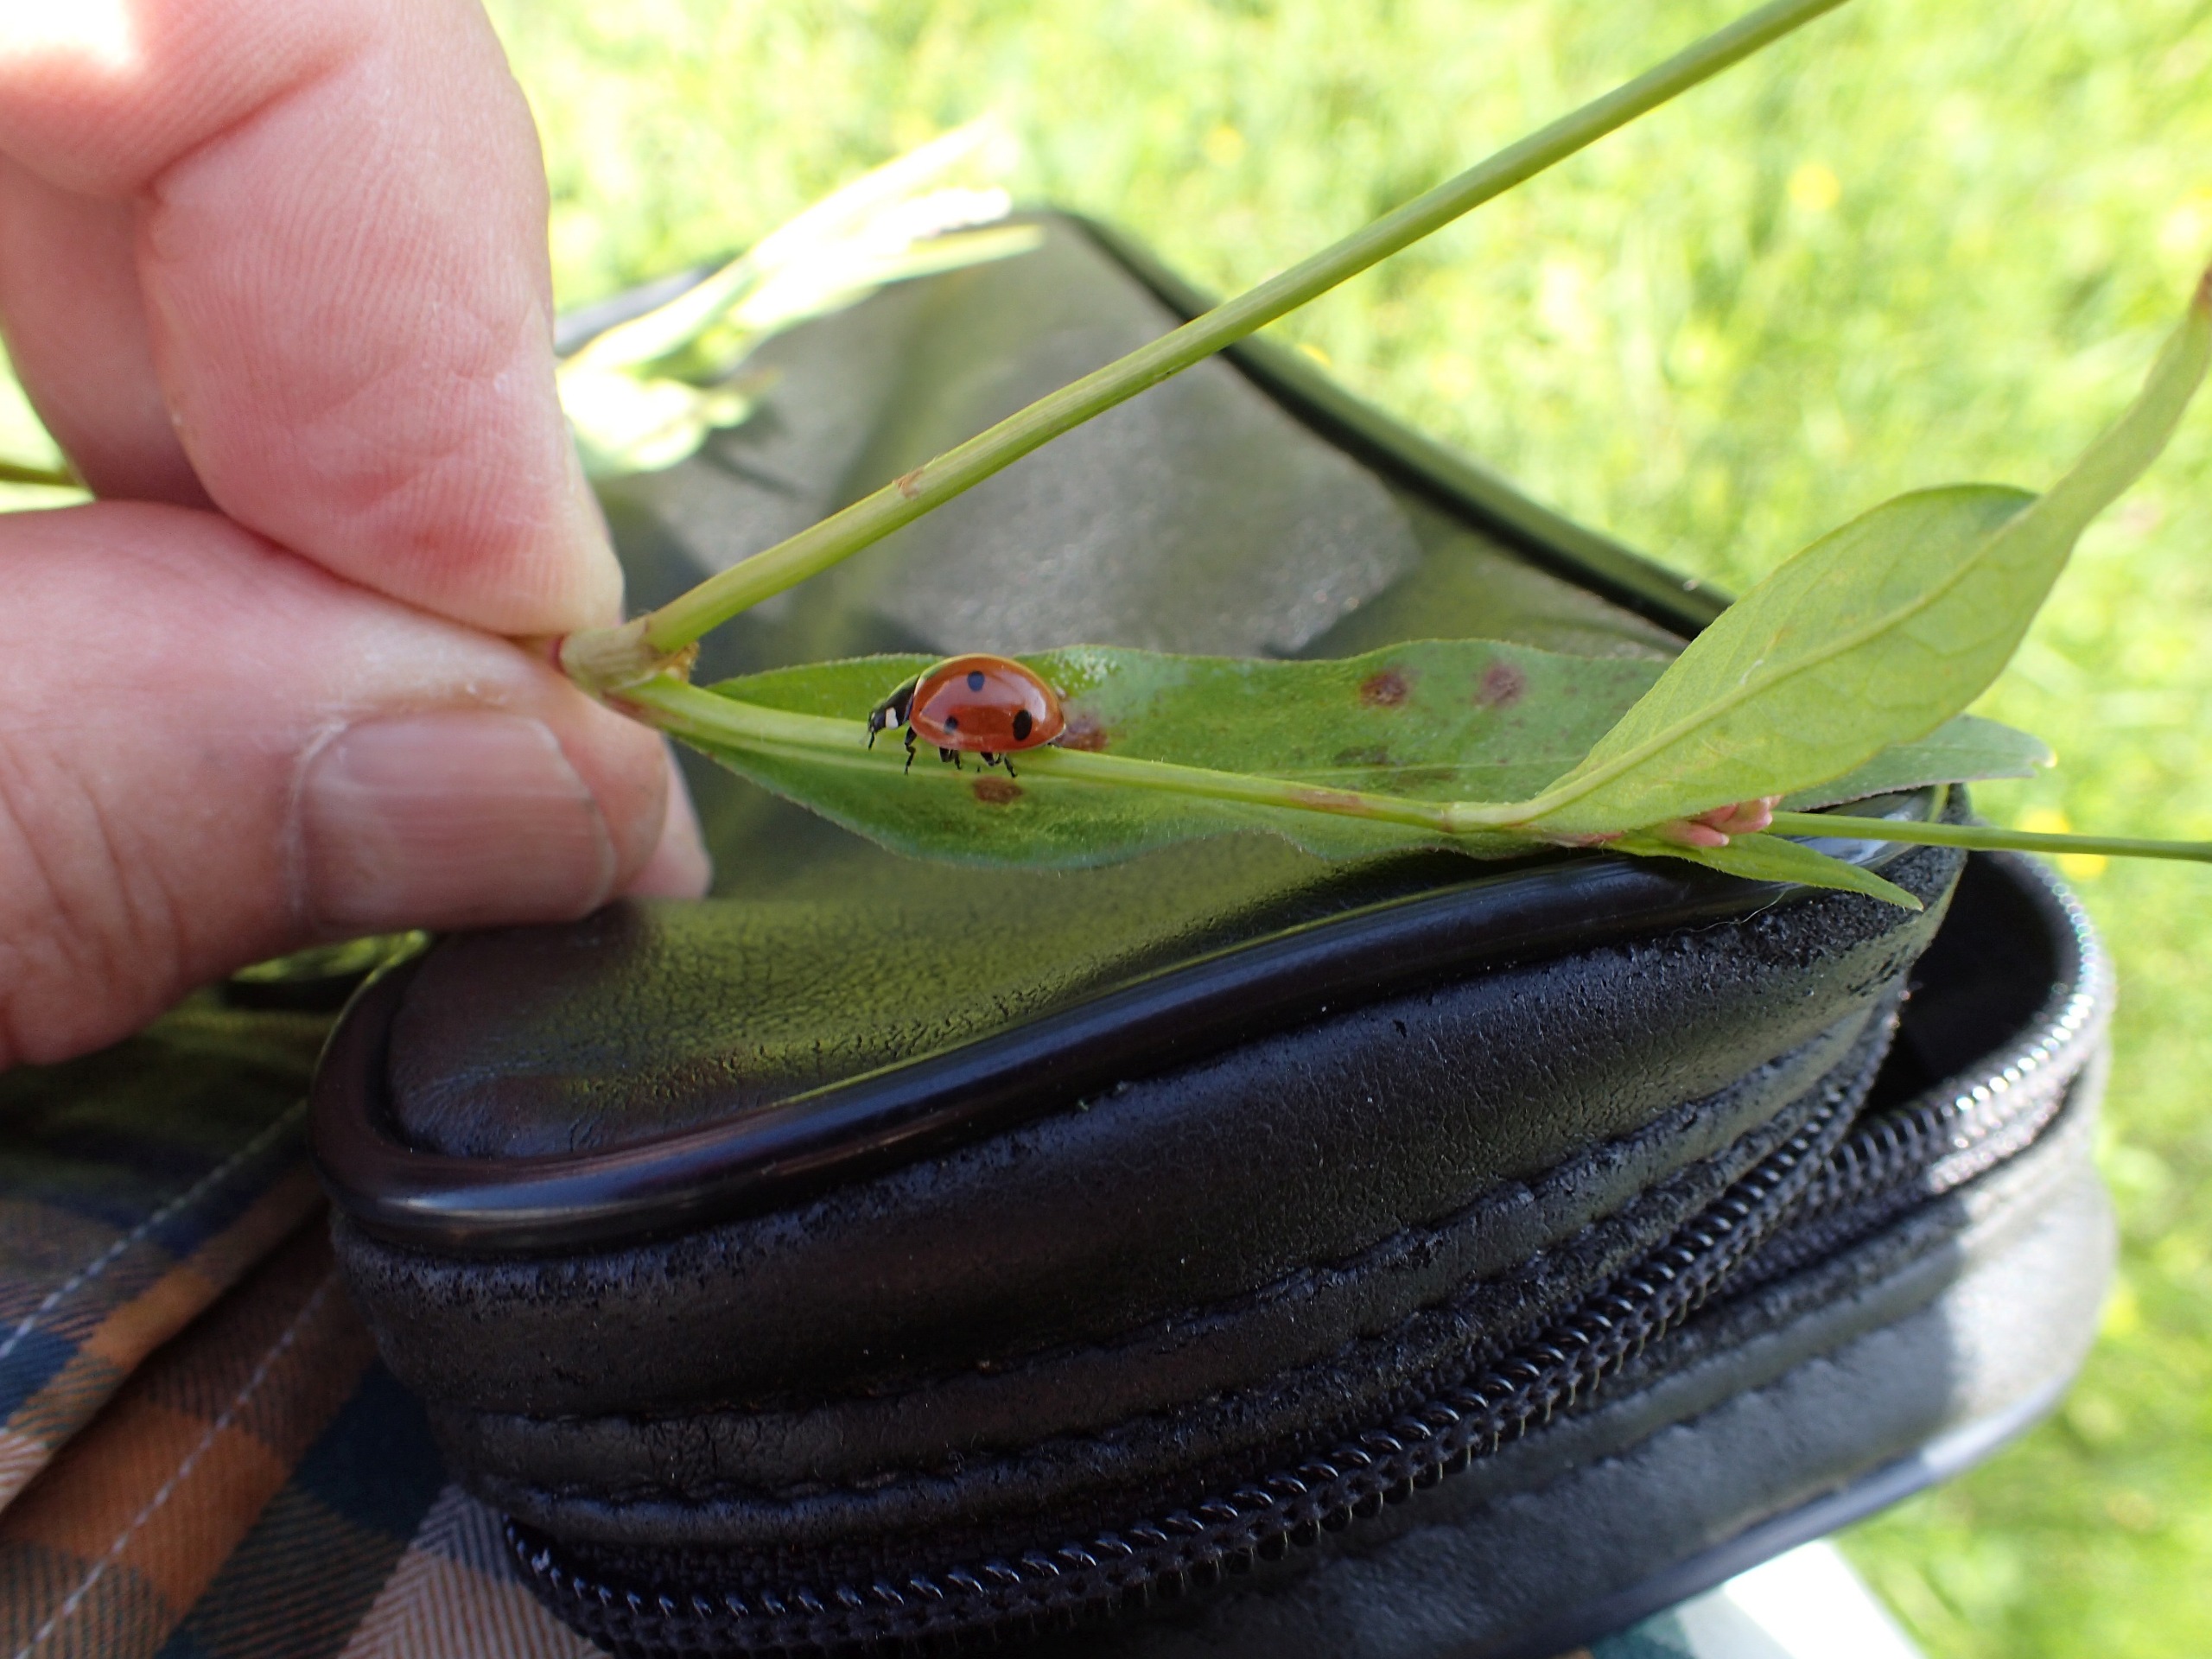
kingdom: Animalia
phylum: Arthropoda
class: Insecta
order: Coleoptera
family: Coccinellidae
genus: Coccinella
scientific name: Coccinella septempunctata
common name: Syvplettet mariehøne
